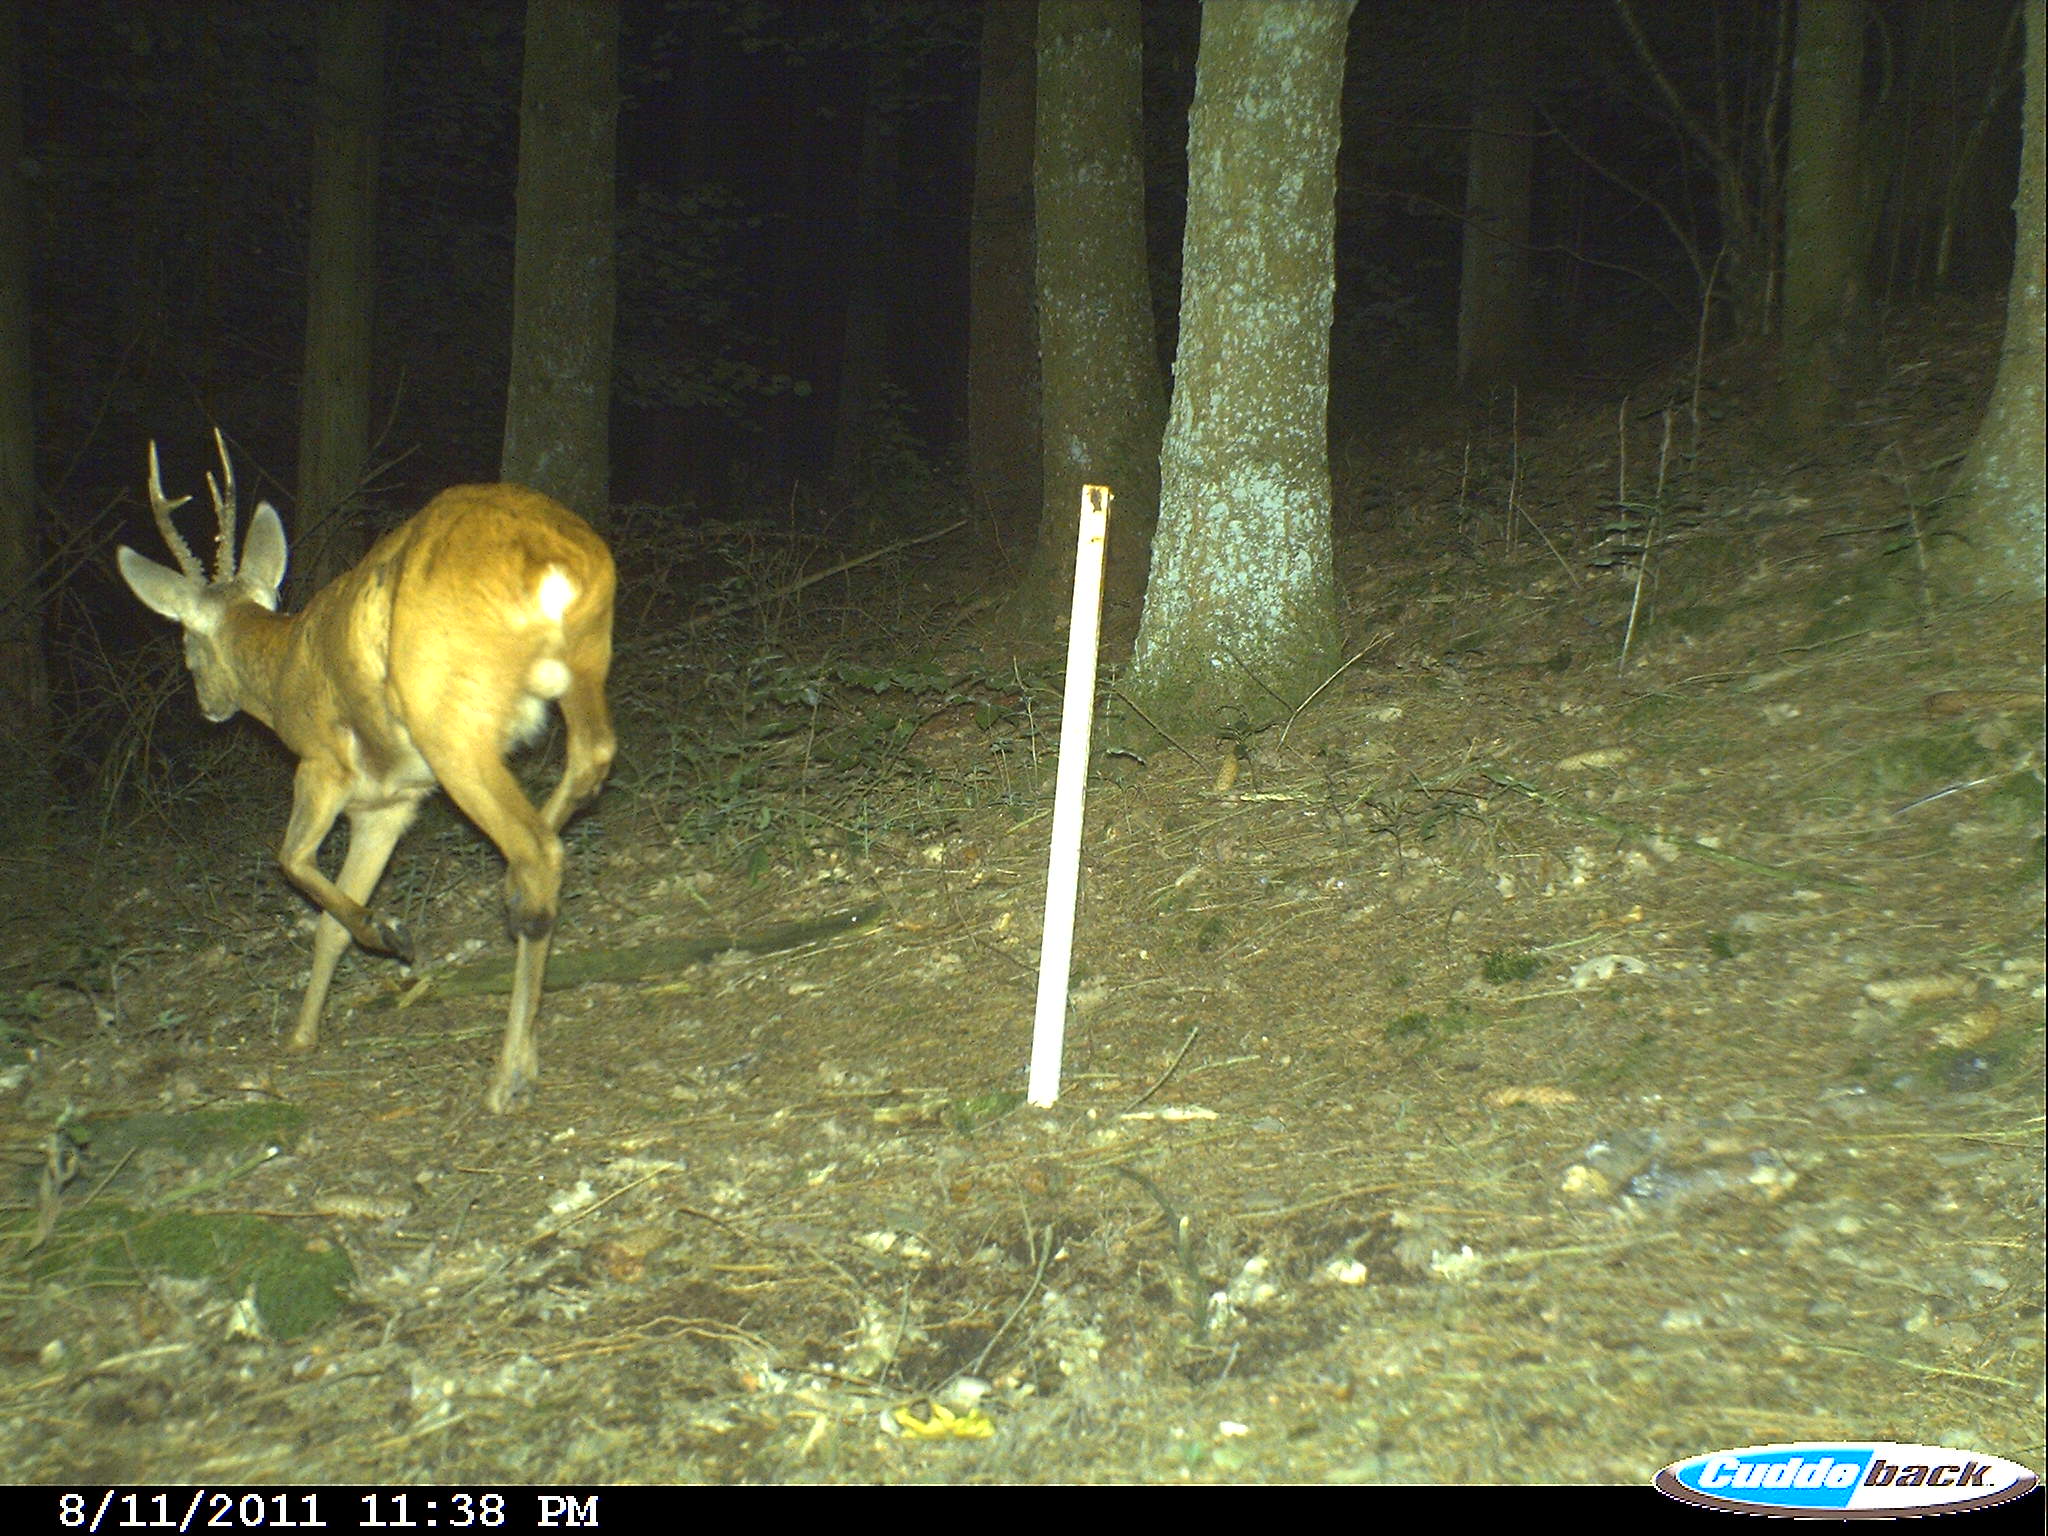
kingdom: Animalia
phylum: Chordata
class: Mammalia
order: Artiodactyla
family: Cervidae
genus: Capreolus
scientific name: Capreolus capreolus
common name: Western roe deer
